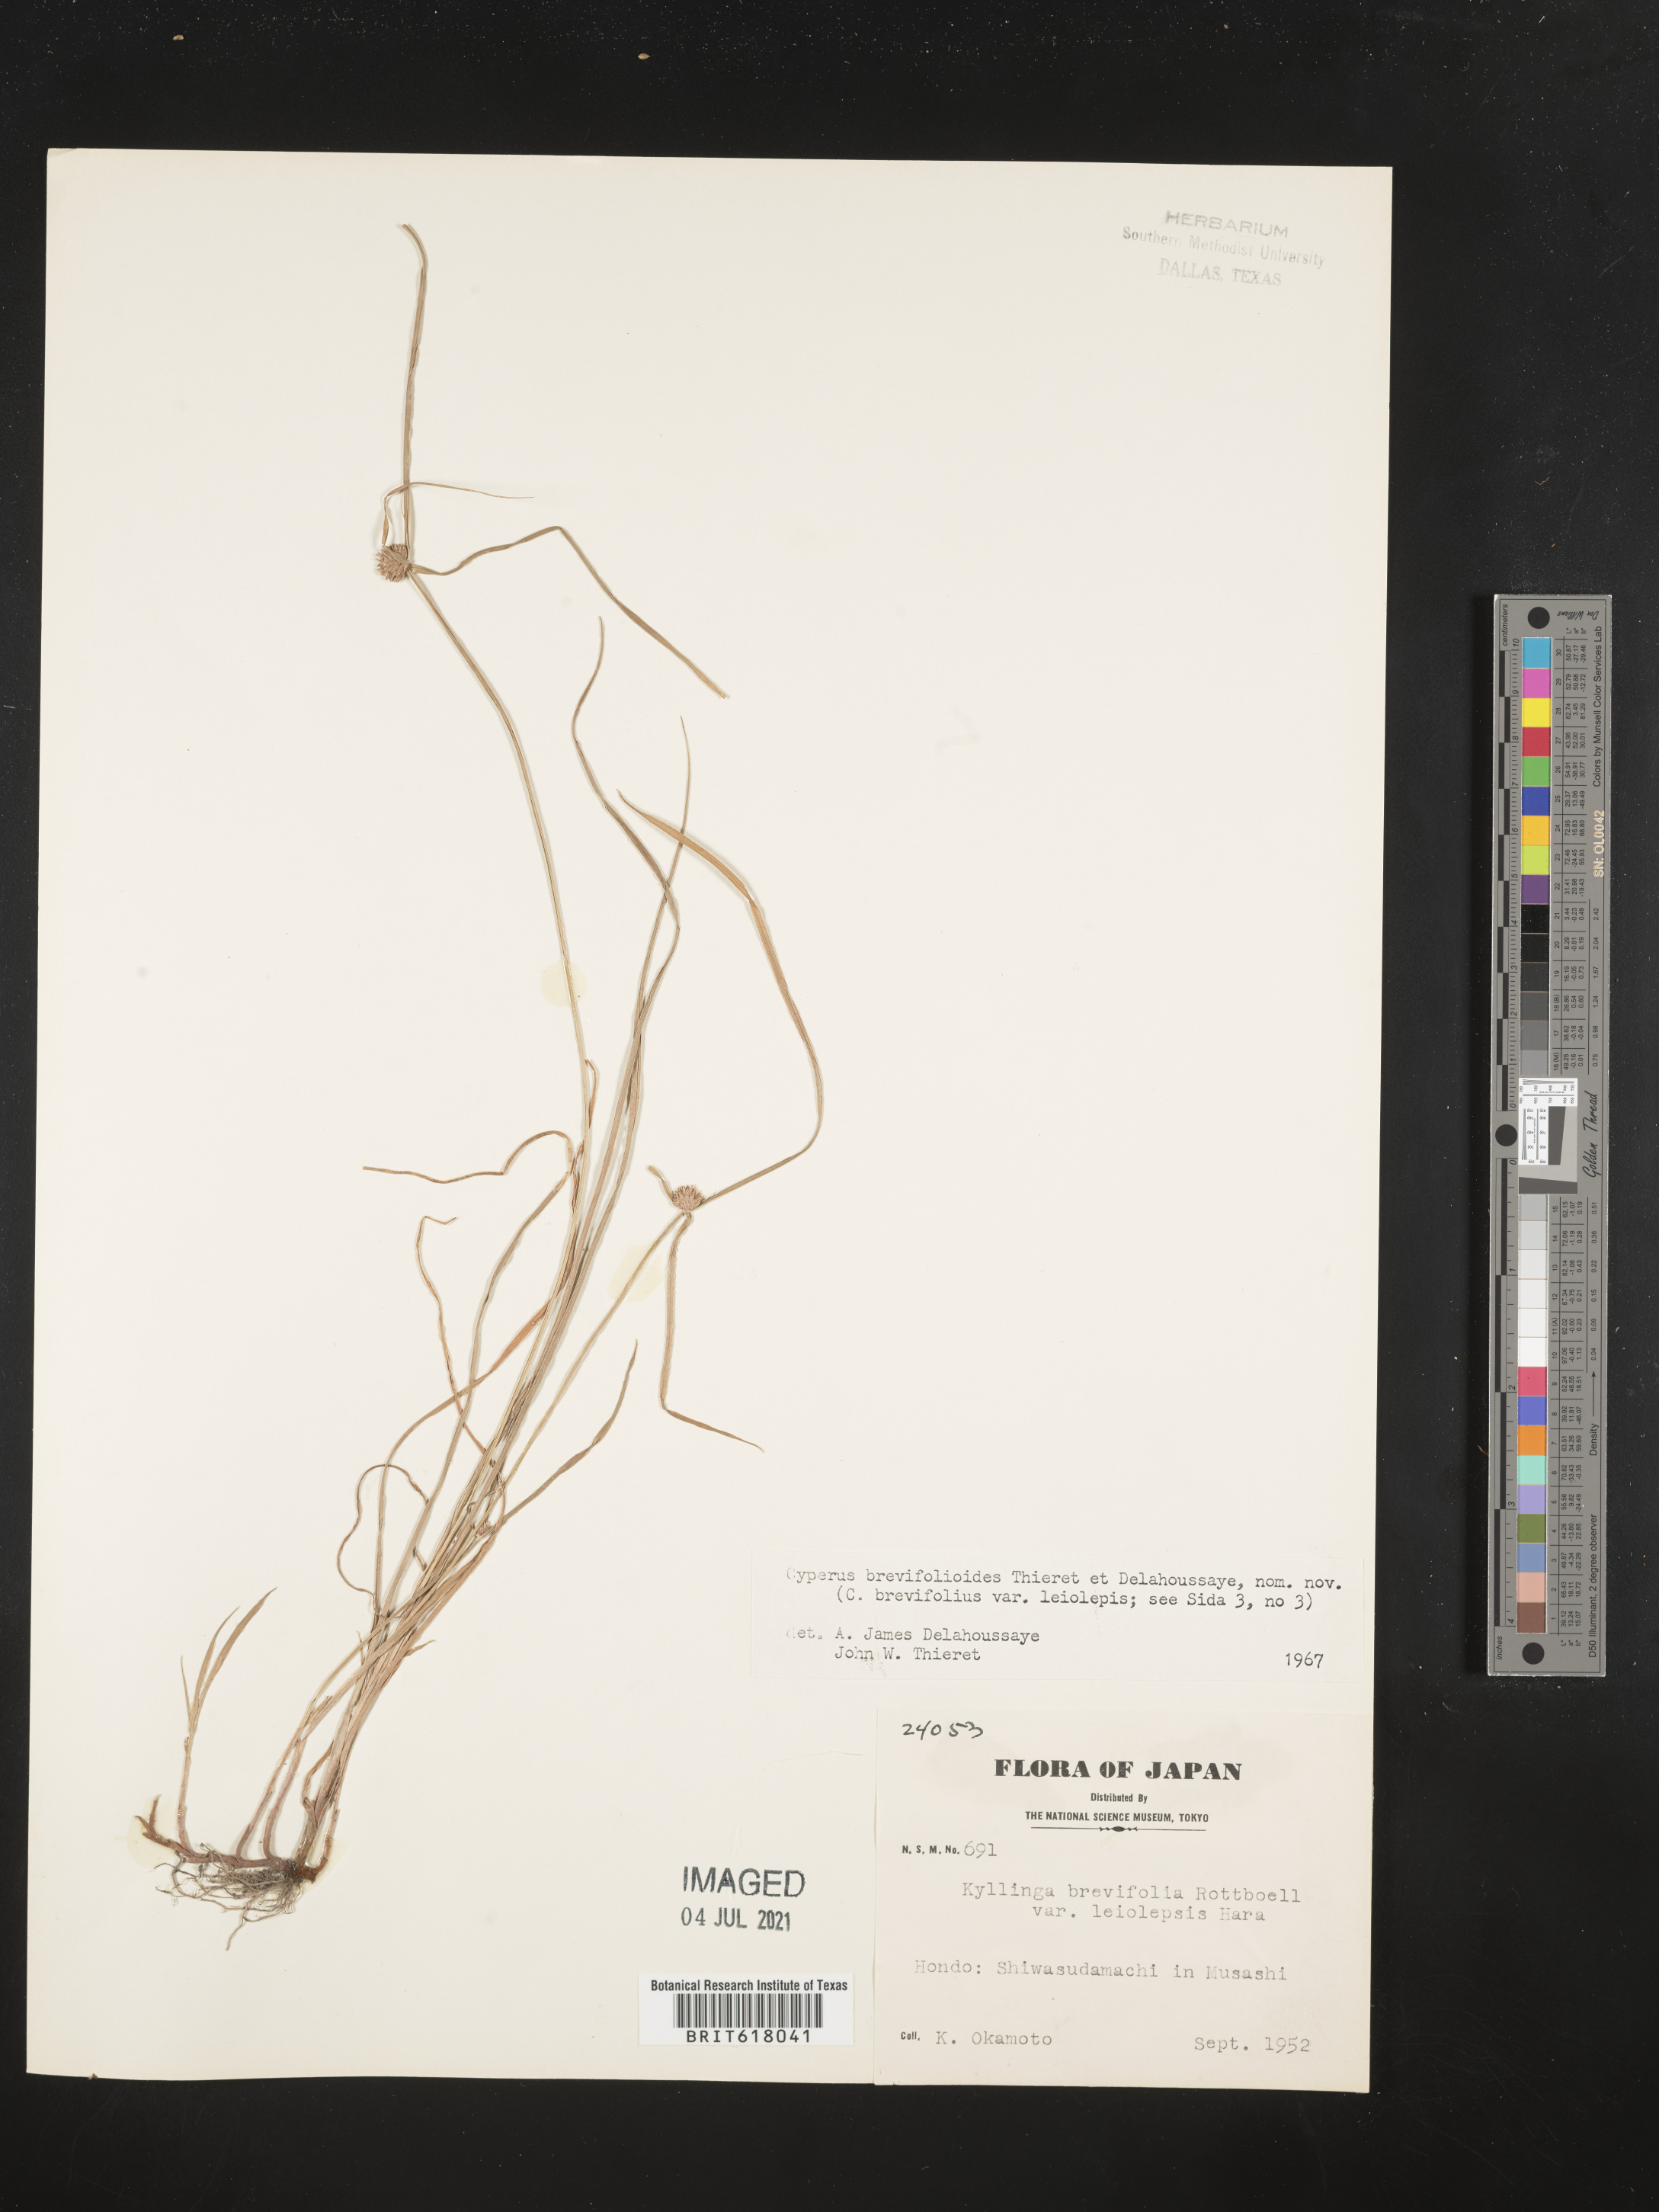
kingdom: Plantae
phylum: Tracheophyta
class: Liliopsida
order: Poales
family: Cyperaceae
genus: Cyperus
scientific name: Cyperus brevifolioides
